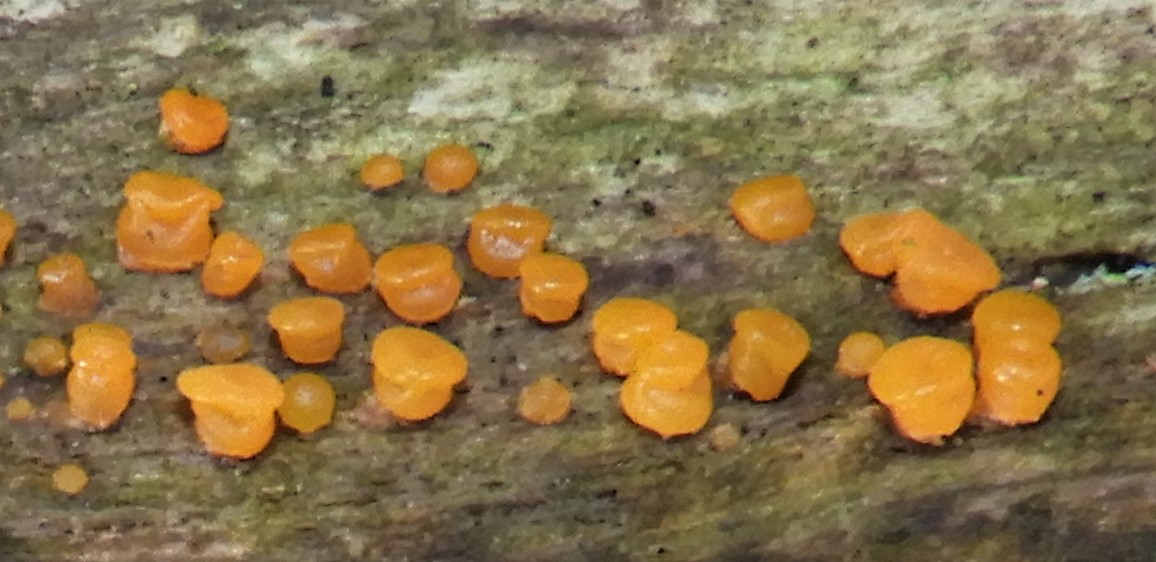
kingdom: Fungi
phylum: Basidiomycota
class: Dacrymycetes
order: Dacrymycetales
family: Dacrymycetaceae
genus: Dacrymyces
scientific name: Dacrymyces
